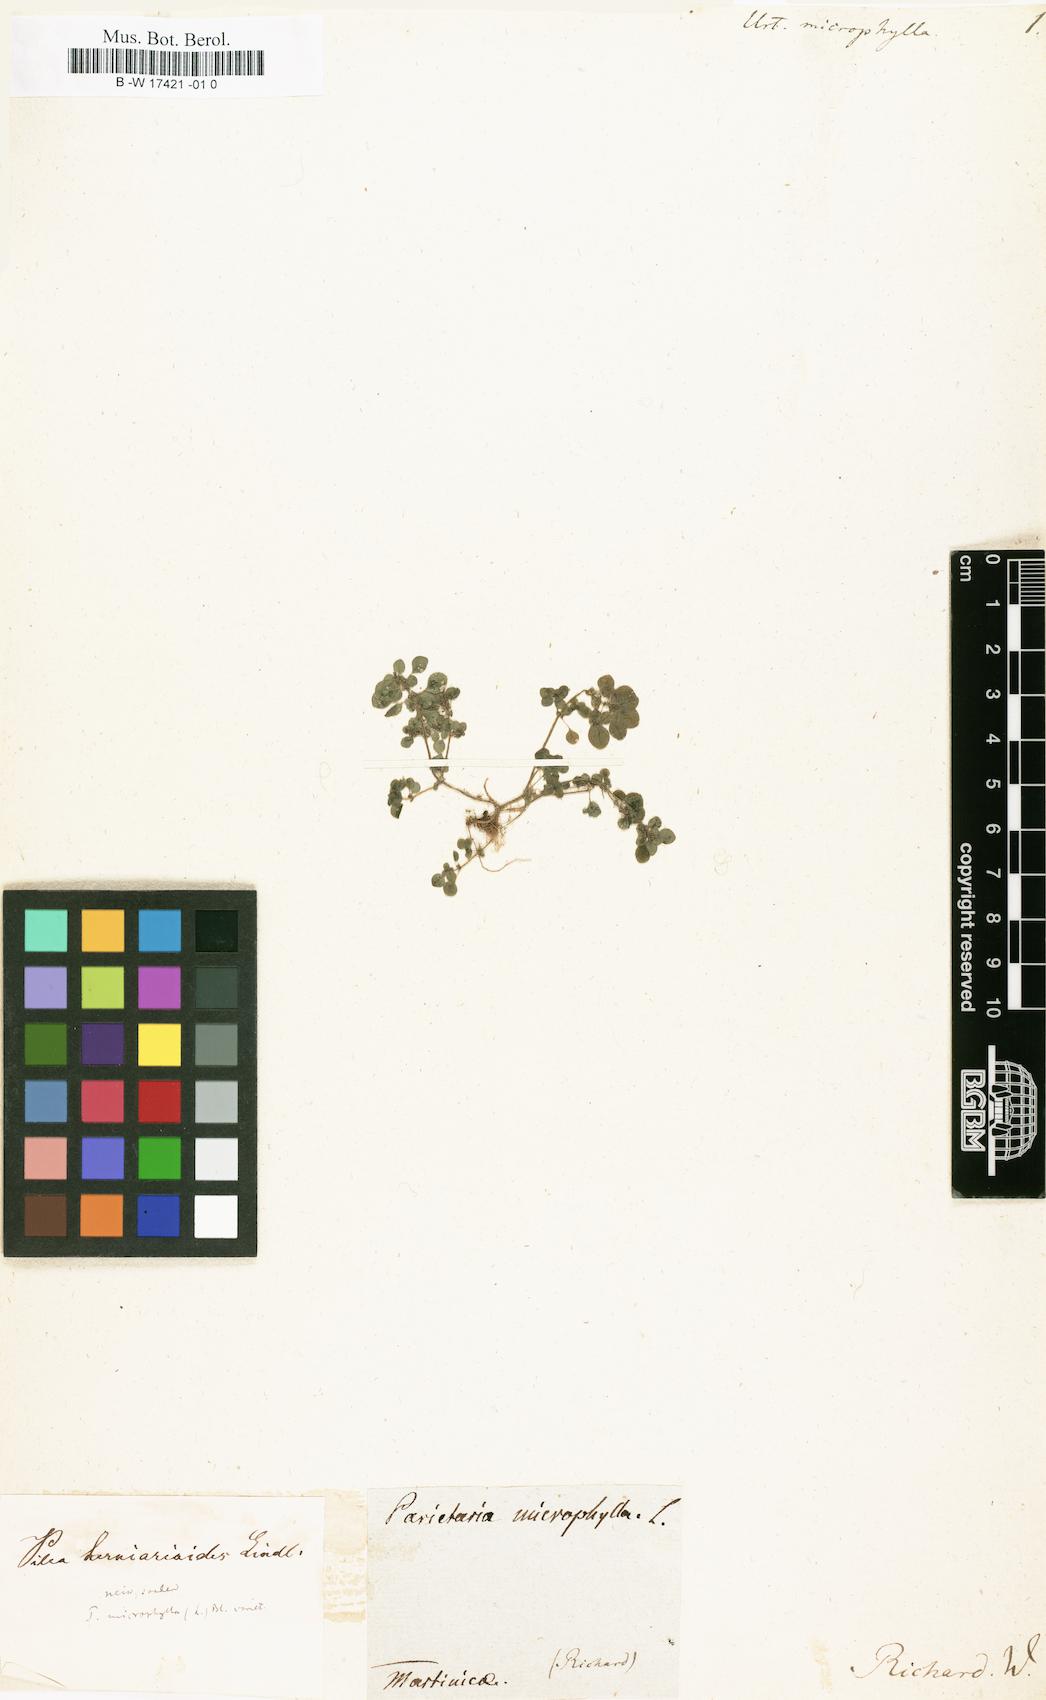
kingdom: Plantae
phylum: Tracheophyta
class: Magnoliopsida
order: Rosales
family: Urticaceae
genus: Pilea
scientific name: Pilea microphylla
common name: Artillery-plant
